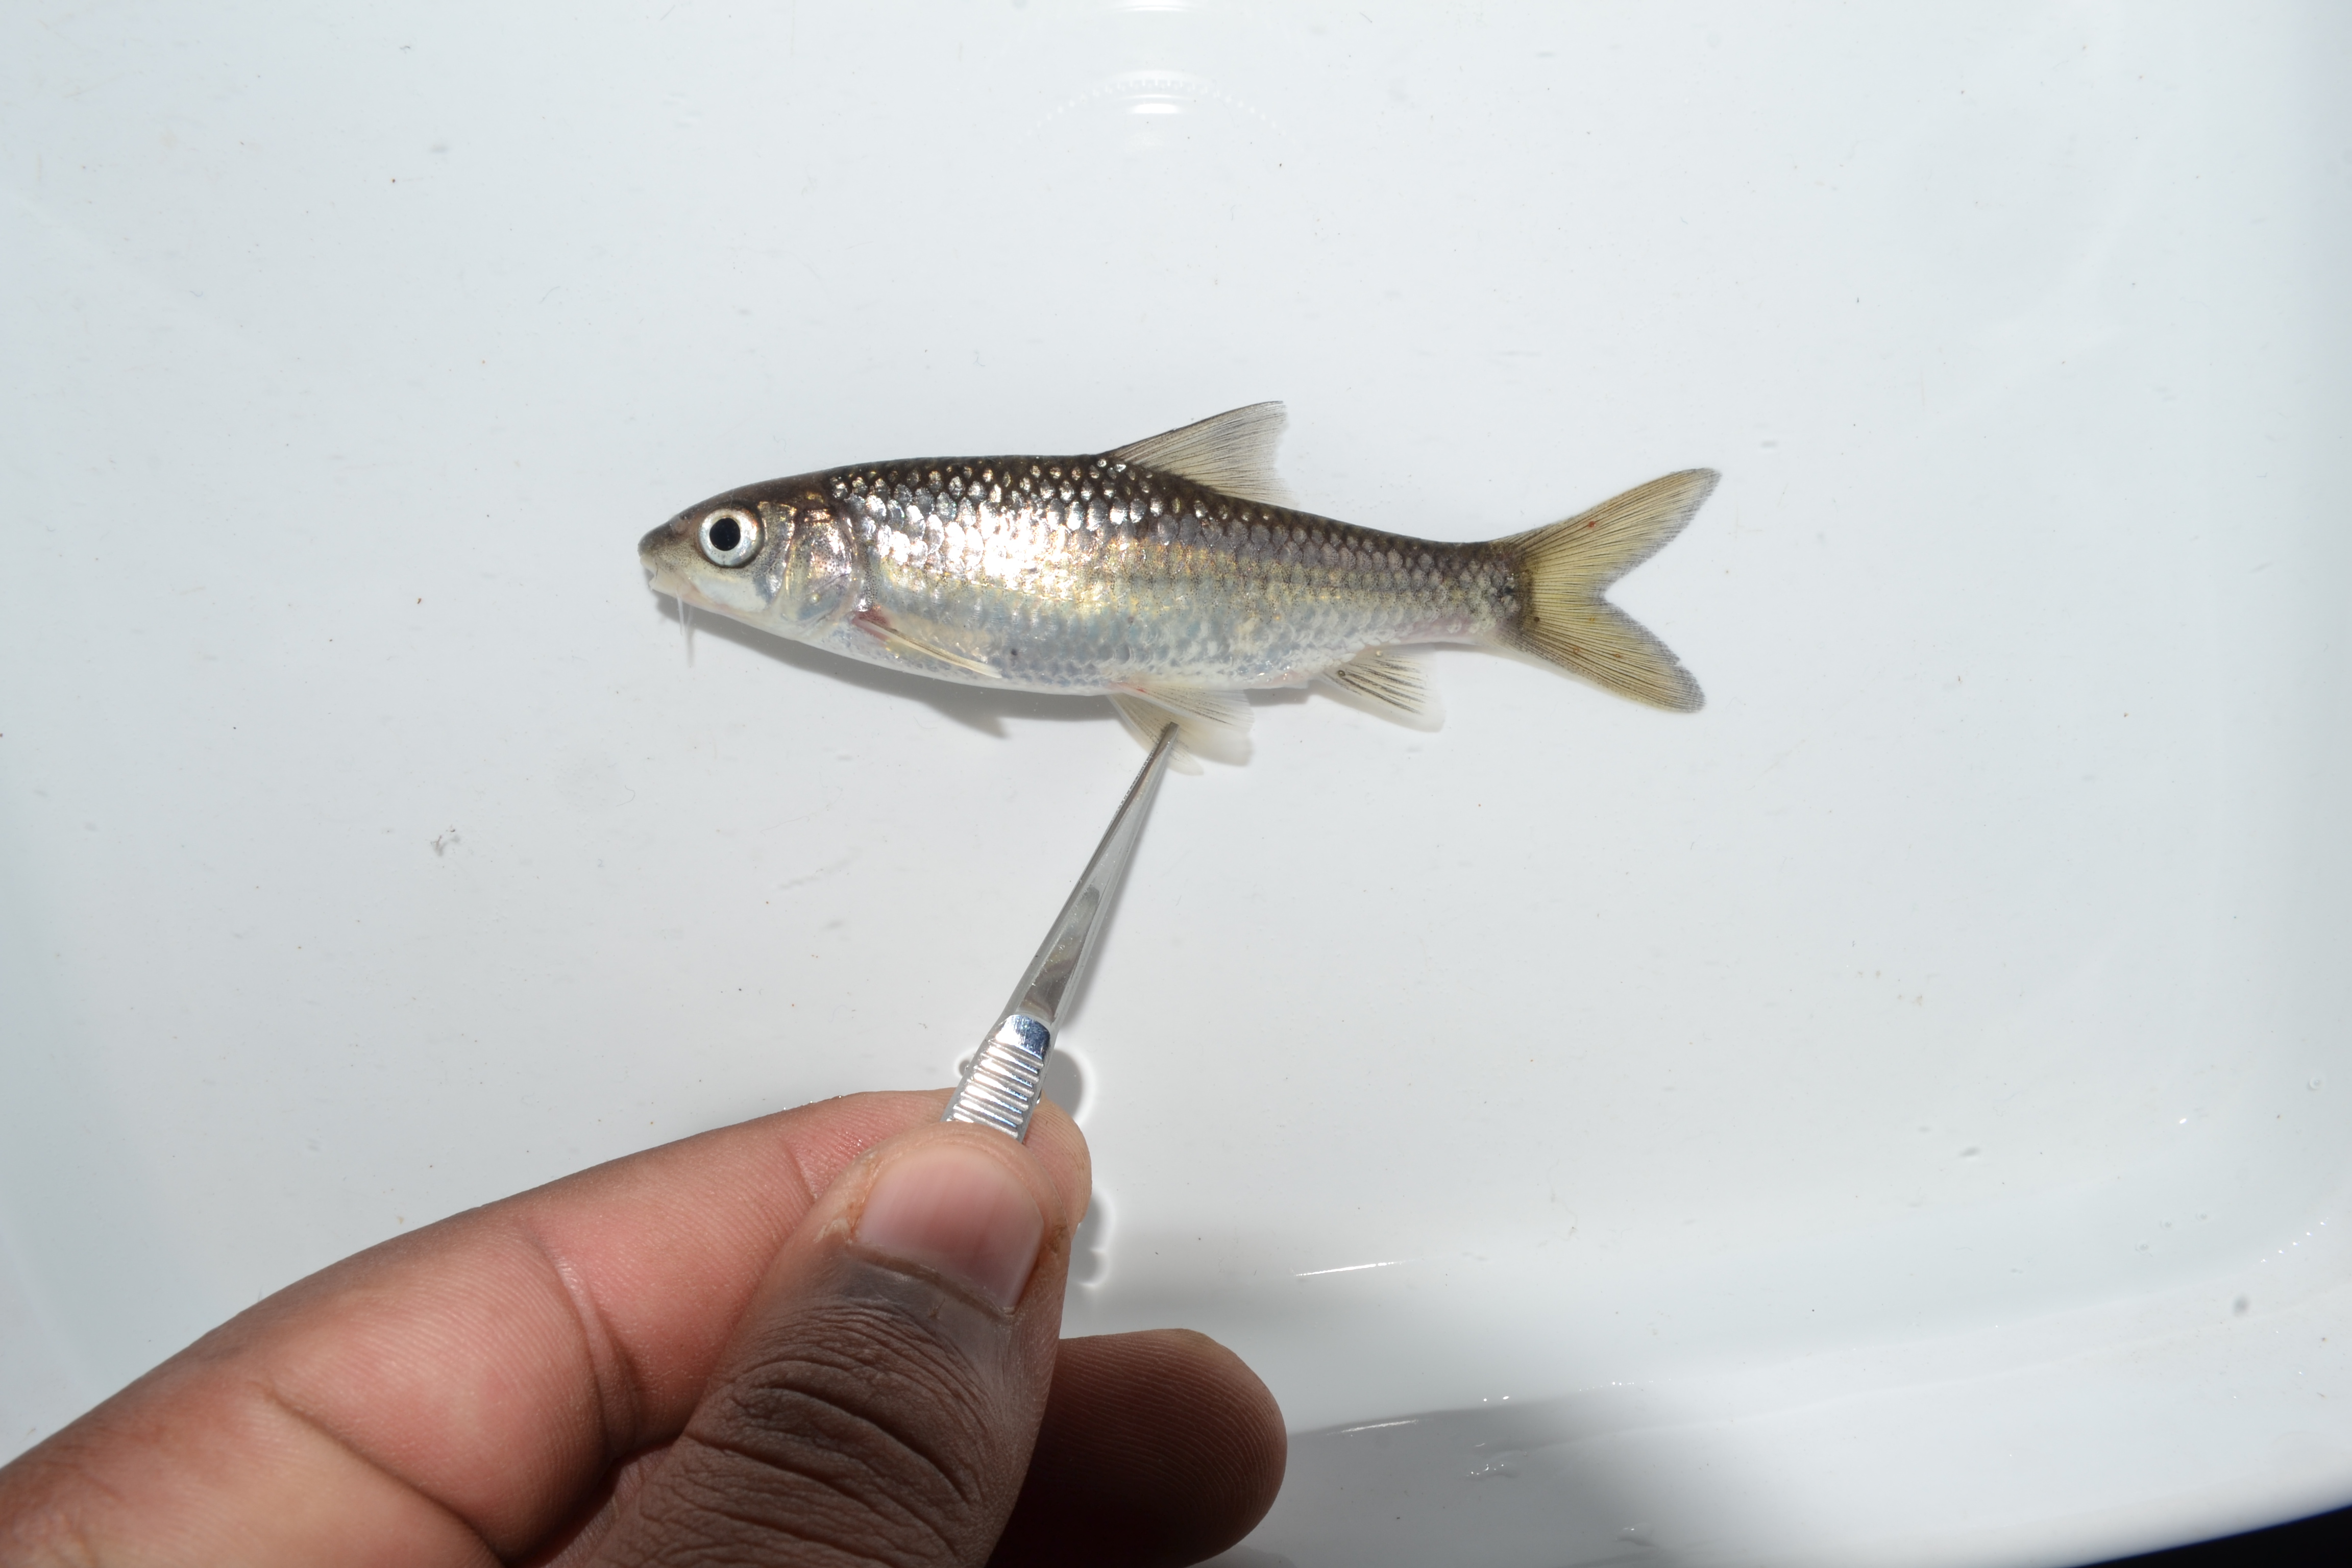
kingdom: Animalia
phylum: Chordata
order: Cypriniformes
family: Cyprinidae
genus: Labeobarbus
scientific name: Labeobarbus natalensis
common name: Scaly
